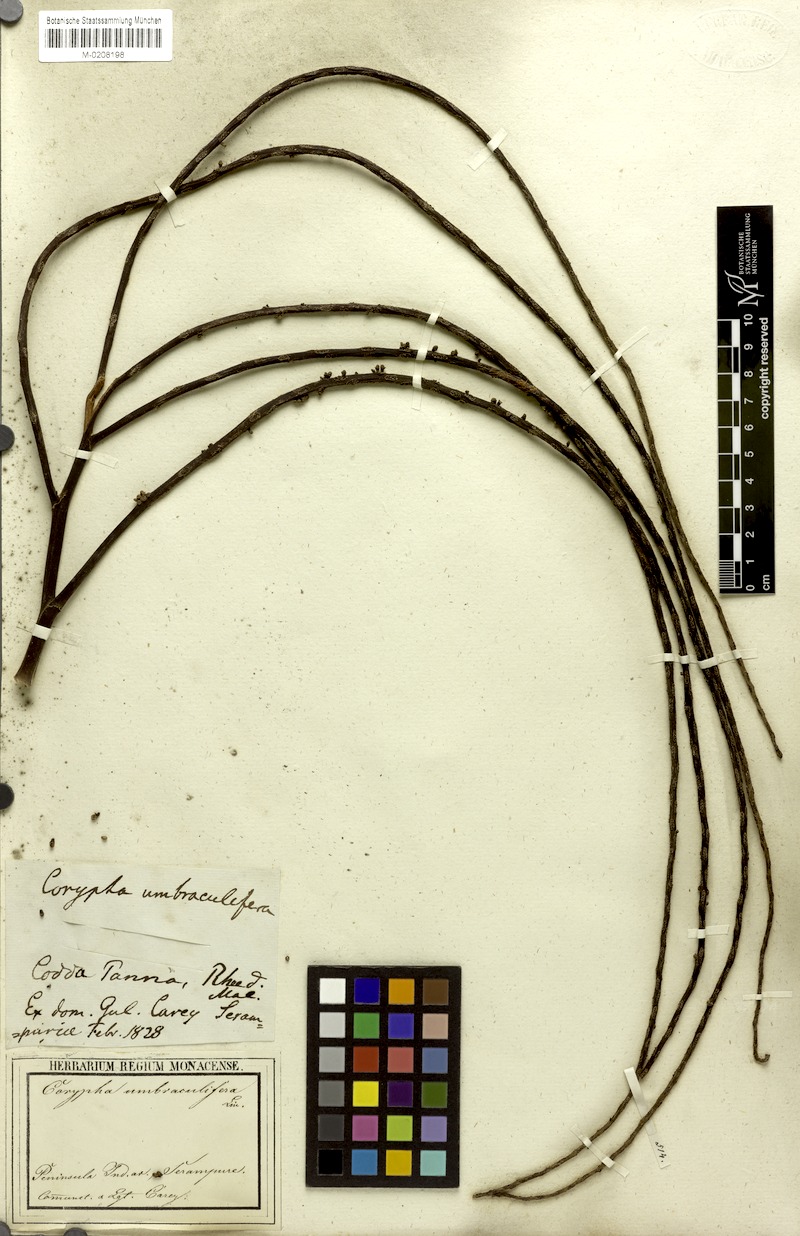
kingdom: Plantae
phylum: Tracheophyta
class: Liliopsida
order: Arecales
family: Arecaceae
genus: Corypha
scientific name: Corypha umbraculifera
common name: Talipot palm
